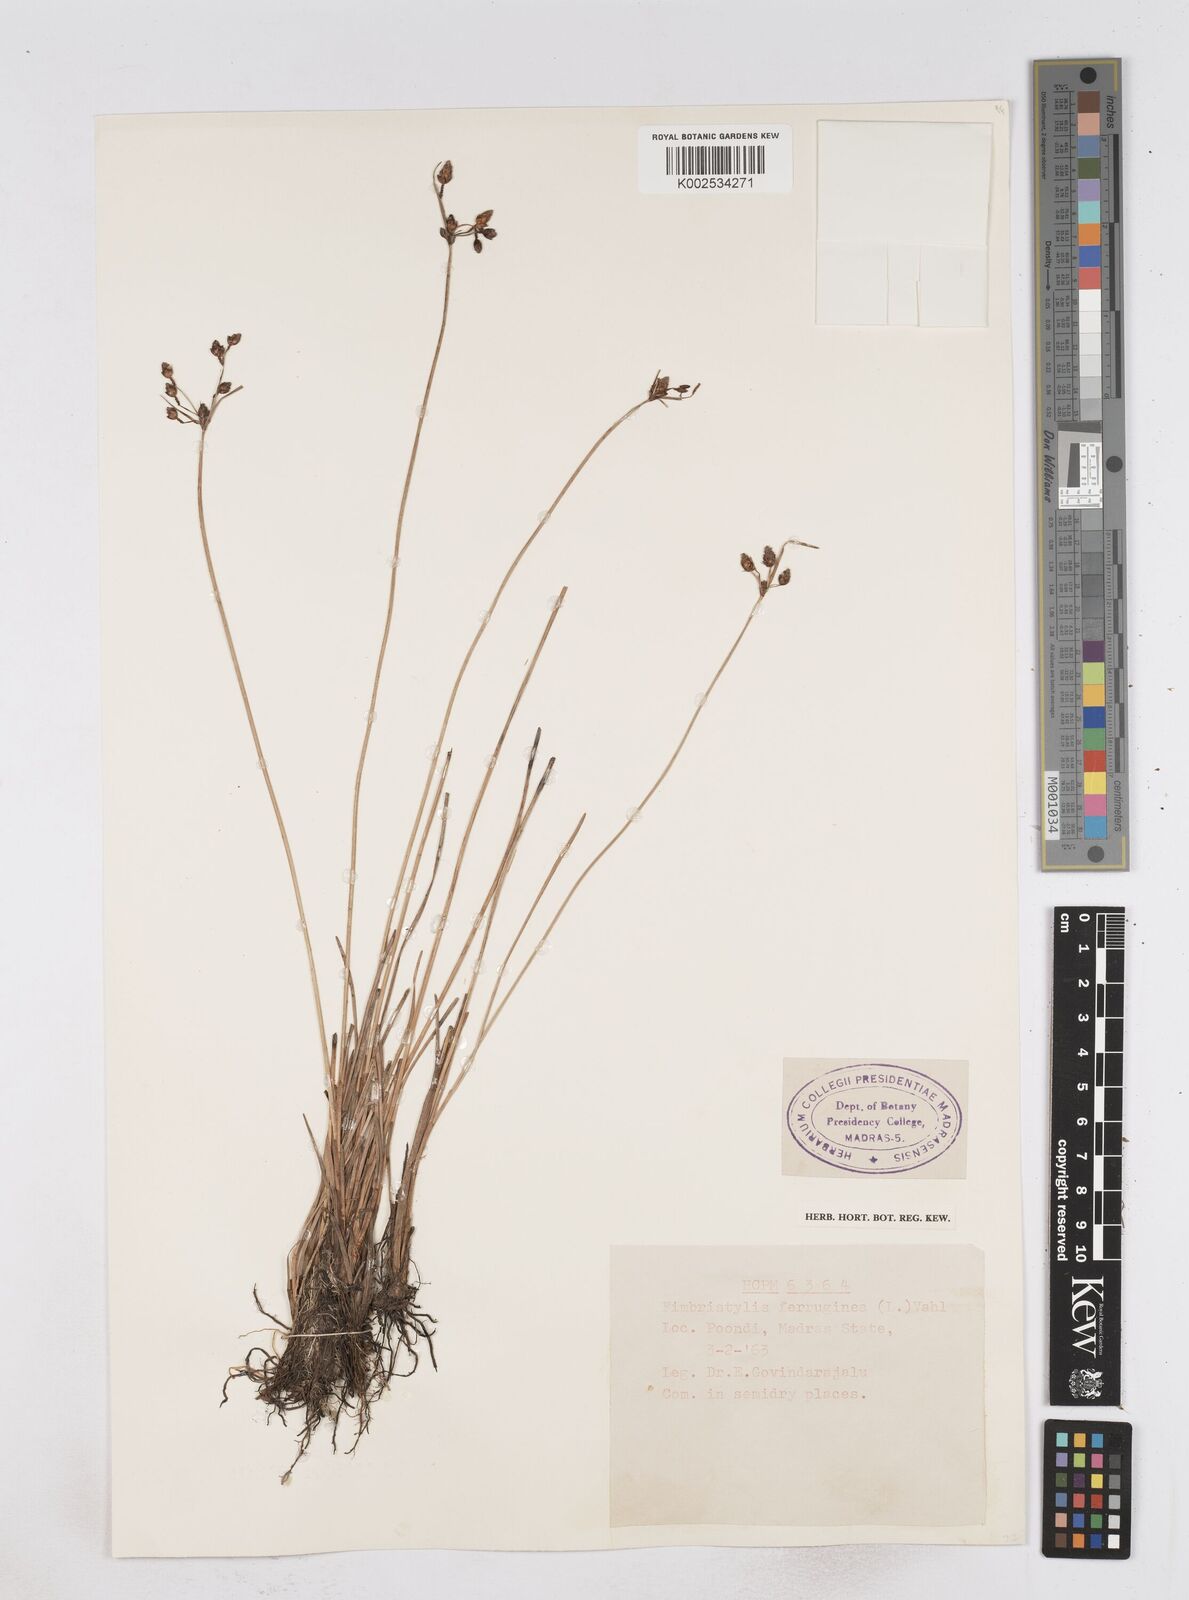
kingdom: Plantae
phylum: Tracheophyta
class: Liliopsida
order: Poales
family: Cyperaceae
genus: Fimbristylis
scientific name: Fimbristylis ferruginea
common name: West indian fimbry
